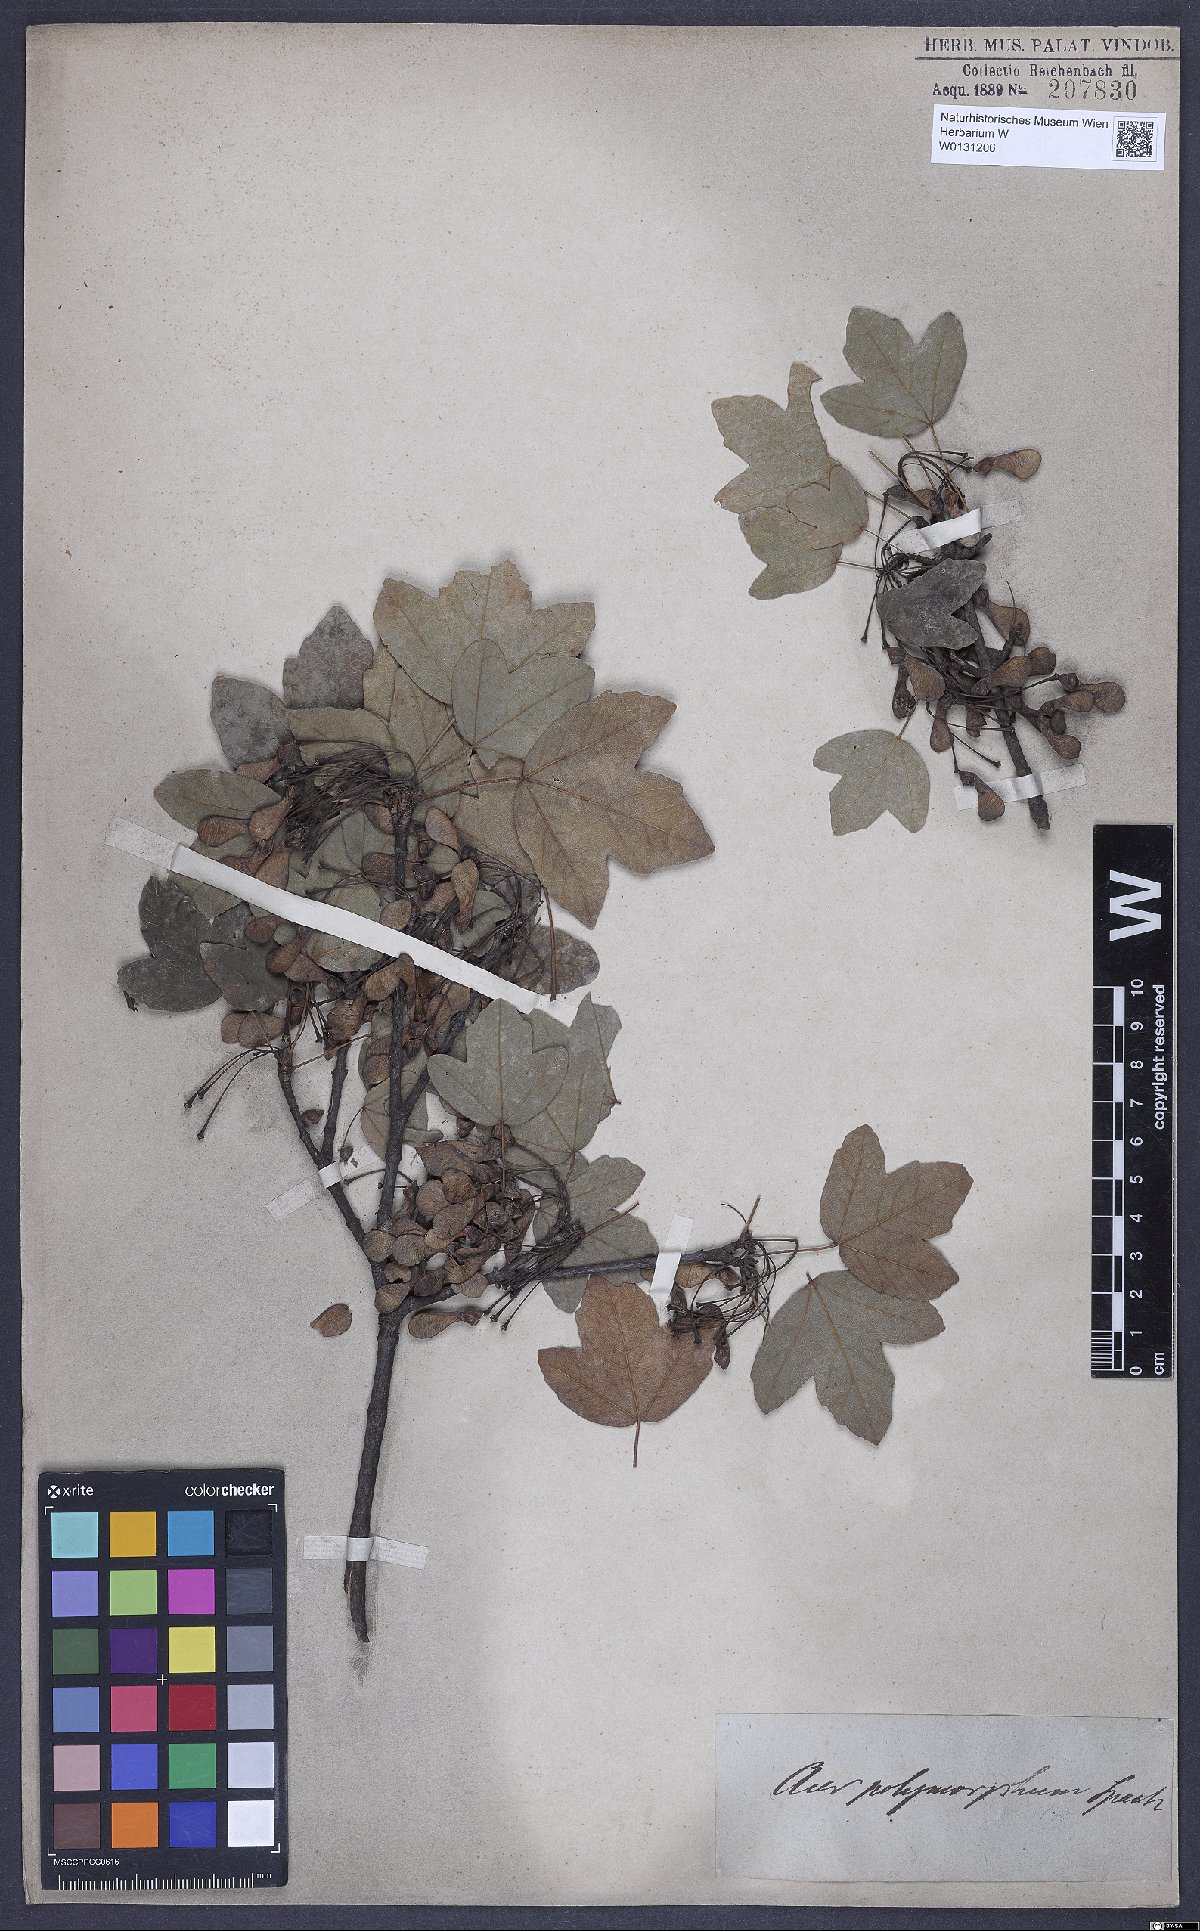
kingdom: Plantae
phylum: Tracheophyta
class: Magnoliopsida
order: Sapindales
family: Aceraceae
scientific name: Aceraceae
